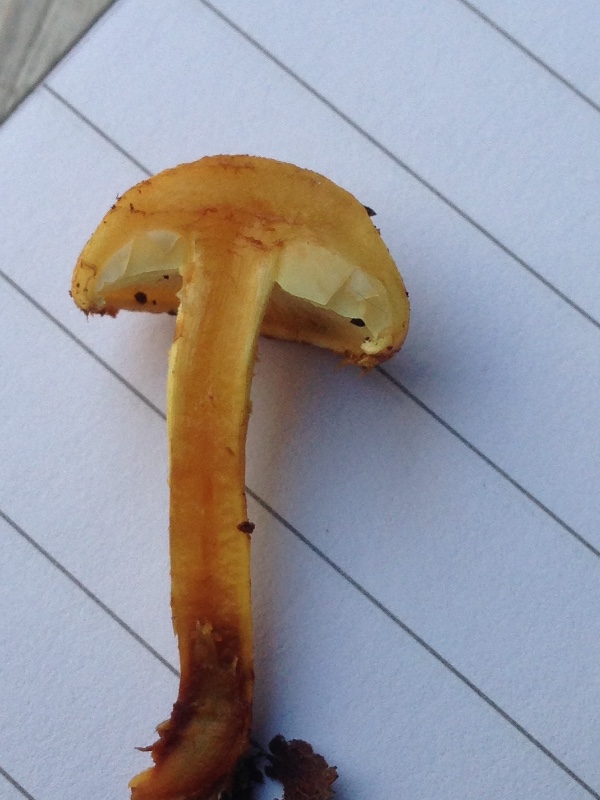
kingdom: Fungi
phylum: Basidiomycota
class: Agaricomycetes
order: Agaricales
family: Strophariaceae
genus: Pholiota
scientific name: Pholiota tuberculosa
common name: finskællet skælhat
